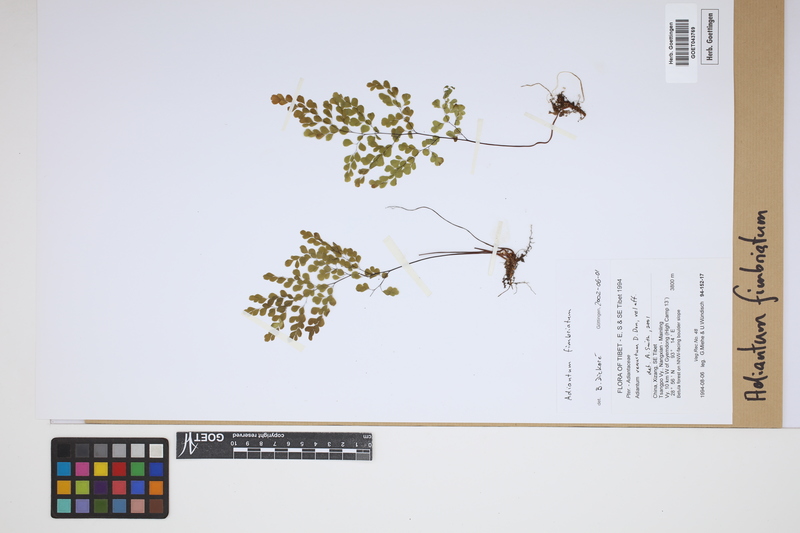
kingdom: Plantae
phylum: Tracheophyta
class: Polypodiopsida
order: Polypodiales
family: Pteridaceae
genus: Adiantum
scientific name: Adiantum venustum
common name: Evergreen maidenhair
